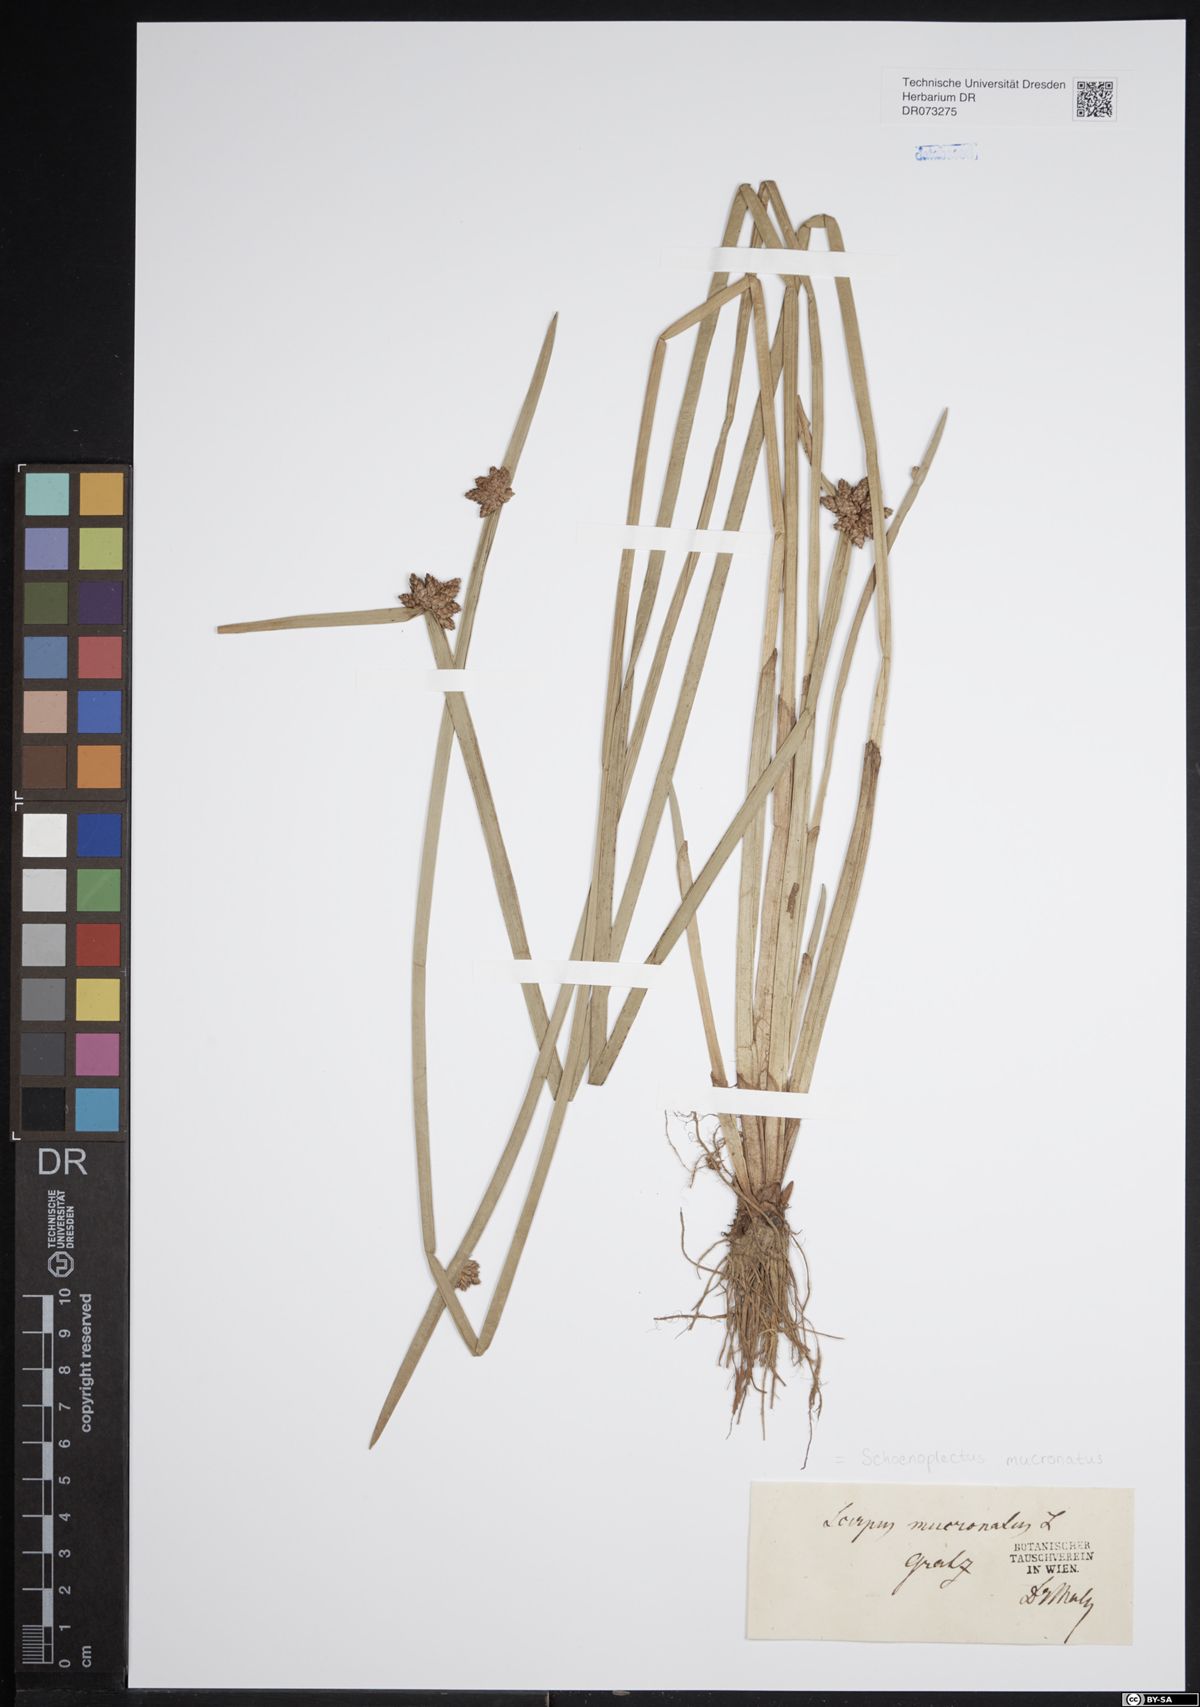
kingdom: Plantae
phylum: Tracheophyta
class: Liliopsida
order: Poales
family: Cyperaceae
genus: Schoenoplectiella
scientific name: Schoenoplectiella mucronata
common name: Bog bulrush
